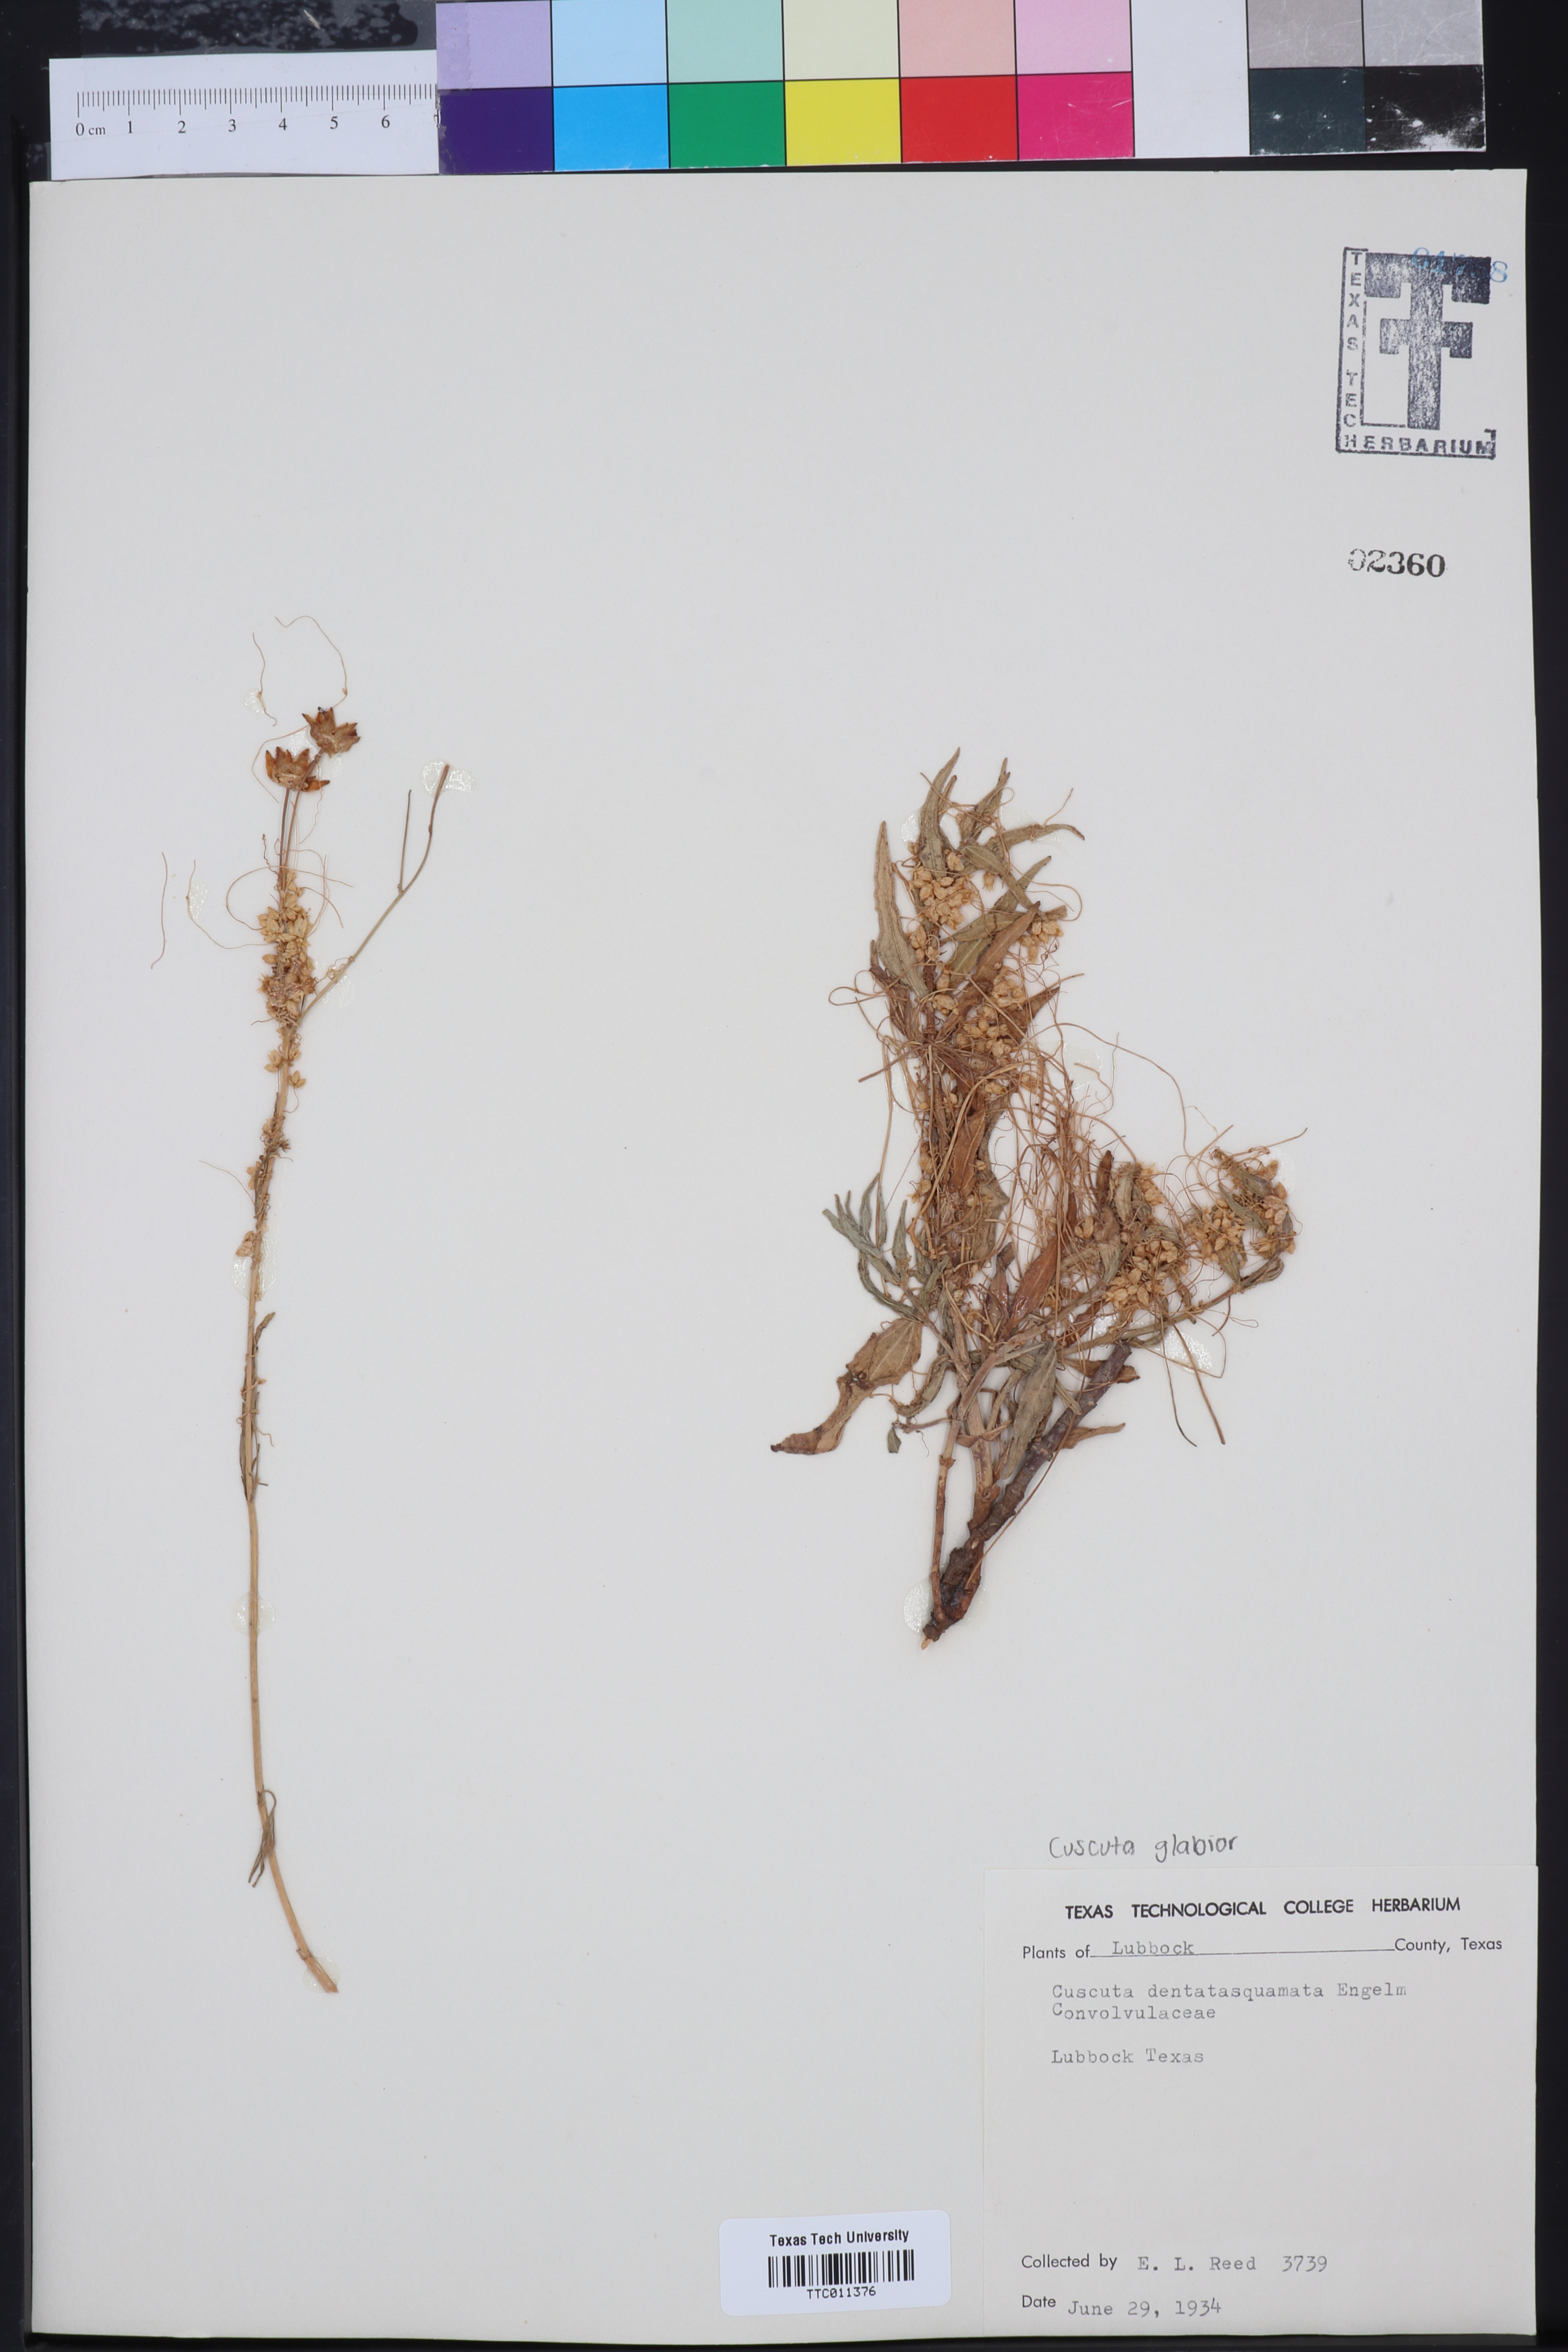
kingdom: Plantae
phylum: Tracheophyta
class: Magnoliopsida
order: Solanales
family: Convolvulaceae
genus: Cuscuta
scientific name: Cuscuta dentatasquamata
